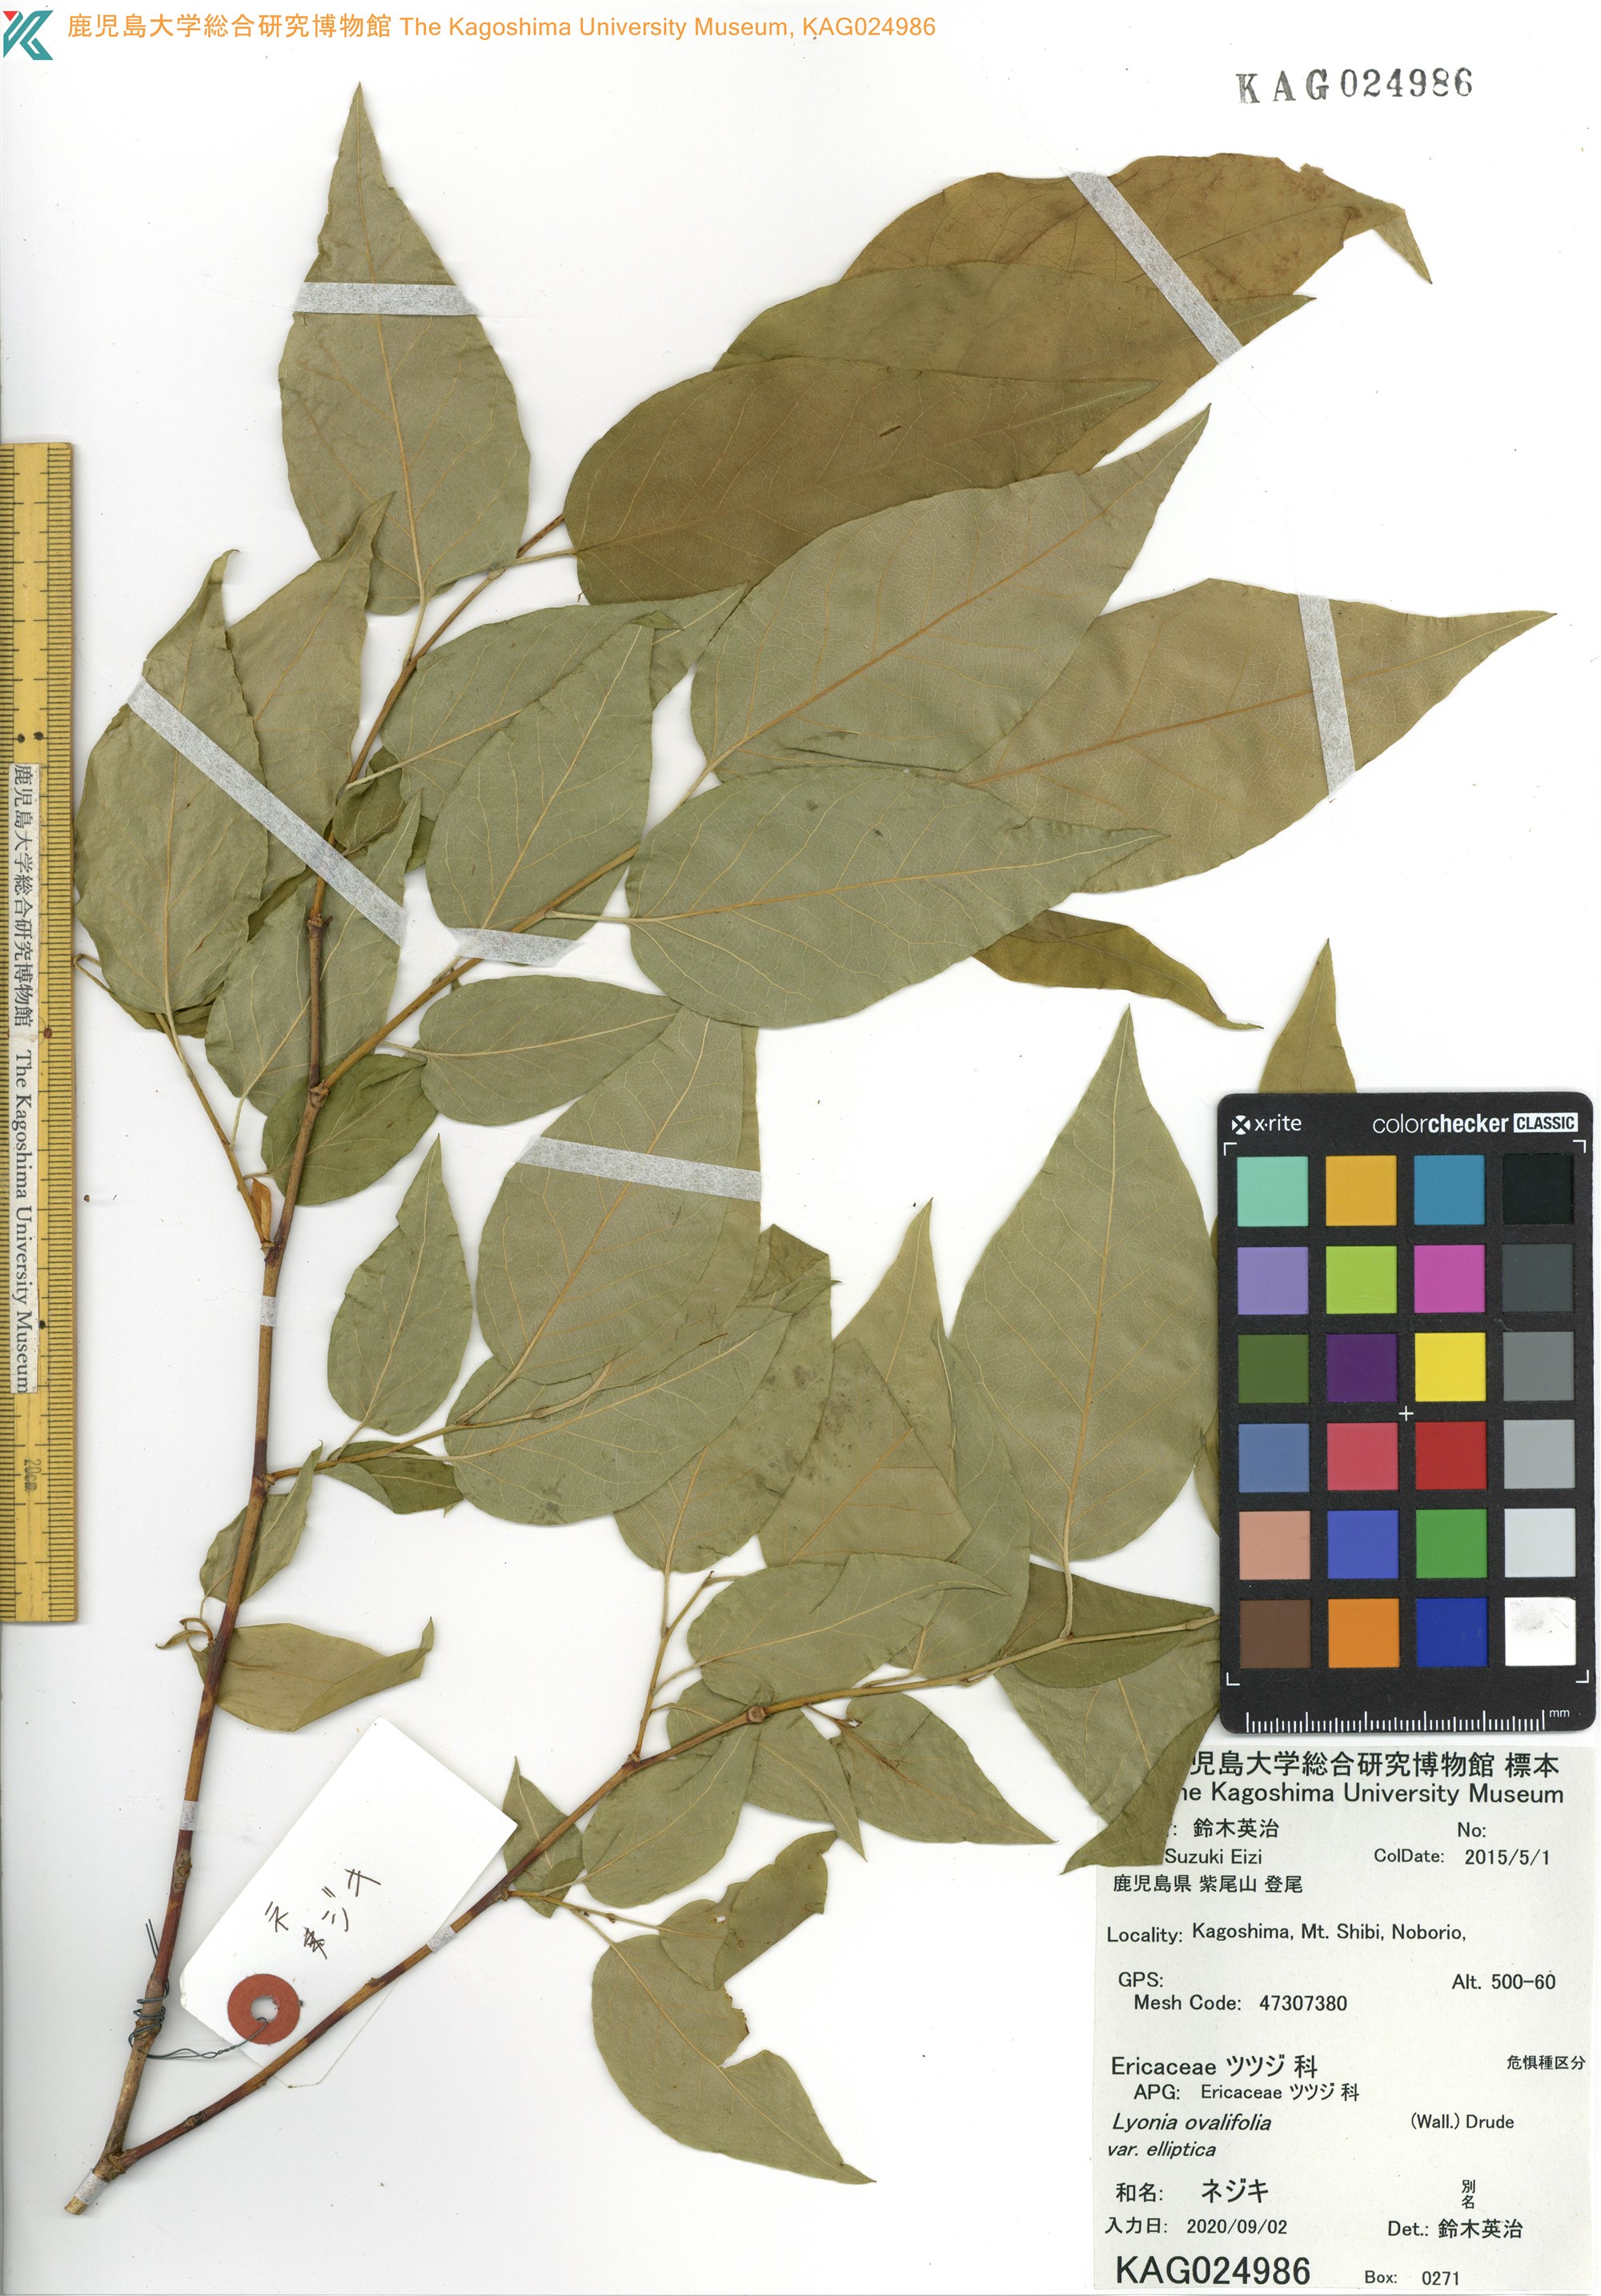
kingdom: Plantae
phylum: Tracheophyta
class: Magnoliopsida
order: Ericales
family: Ericaceae
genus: Lyonia
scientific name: Lyonia ovalifolia
